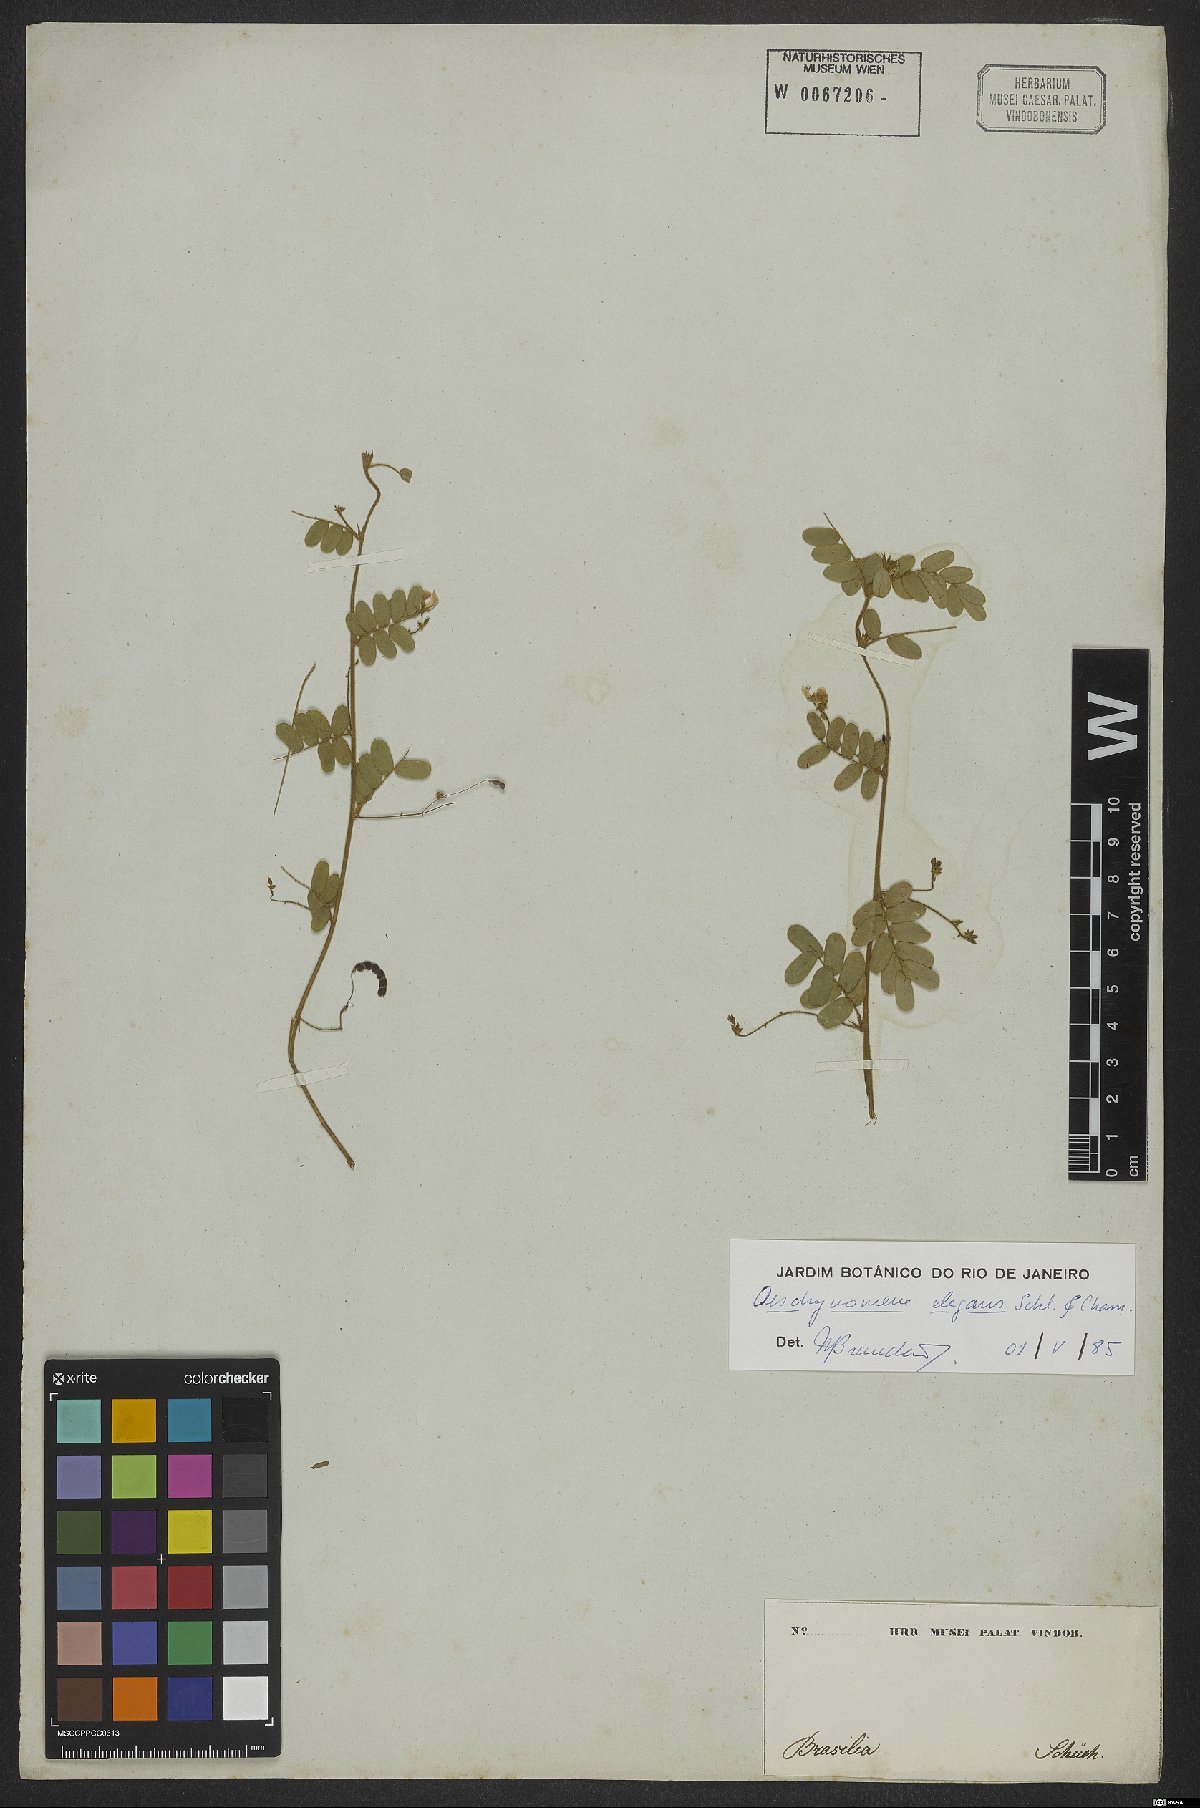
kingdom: Plantae
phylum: Tracheophyta
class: Magnoliopsida
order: Fabales
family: Fabaceae
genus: Ctenodon
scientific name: Ctenodon elegans
